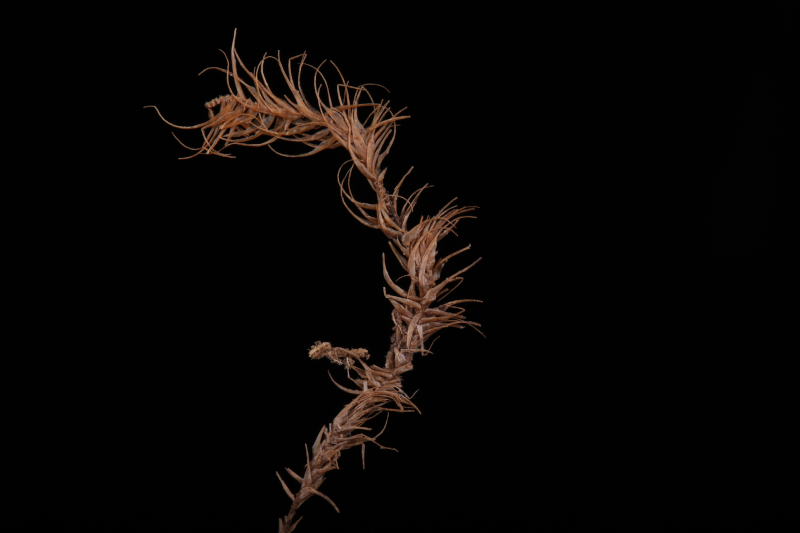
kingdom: Plantae
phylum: Bryophyta
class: Bryopsida
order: Dicranales
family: Dicranaceae
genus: Dicranoloma
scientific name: Dicranoloma brevisetum
